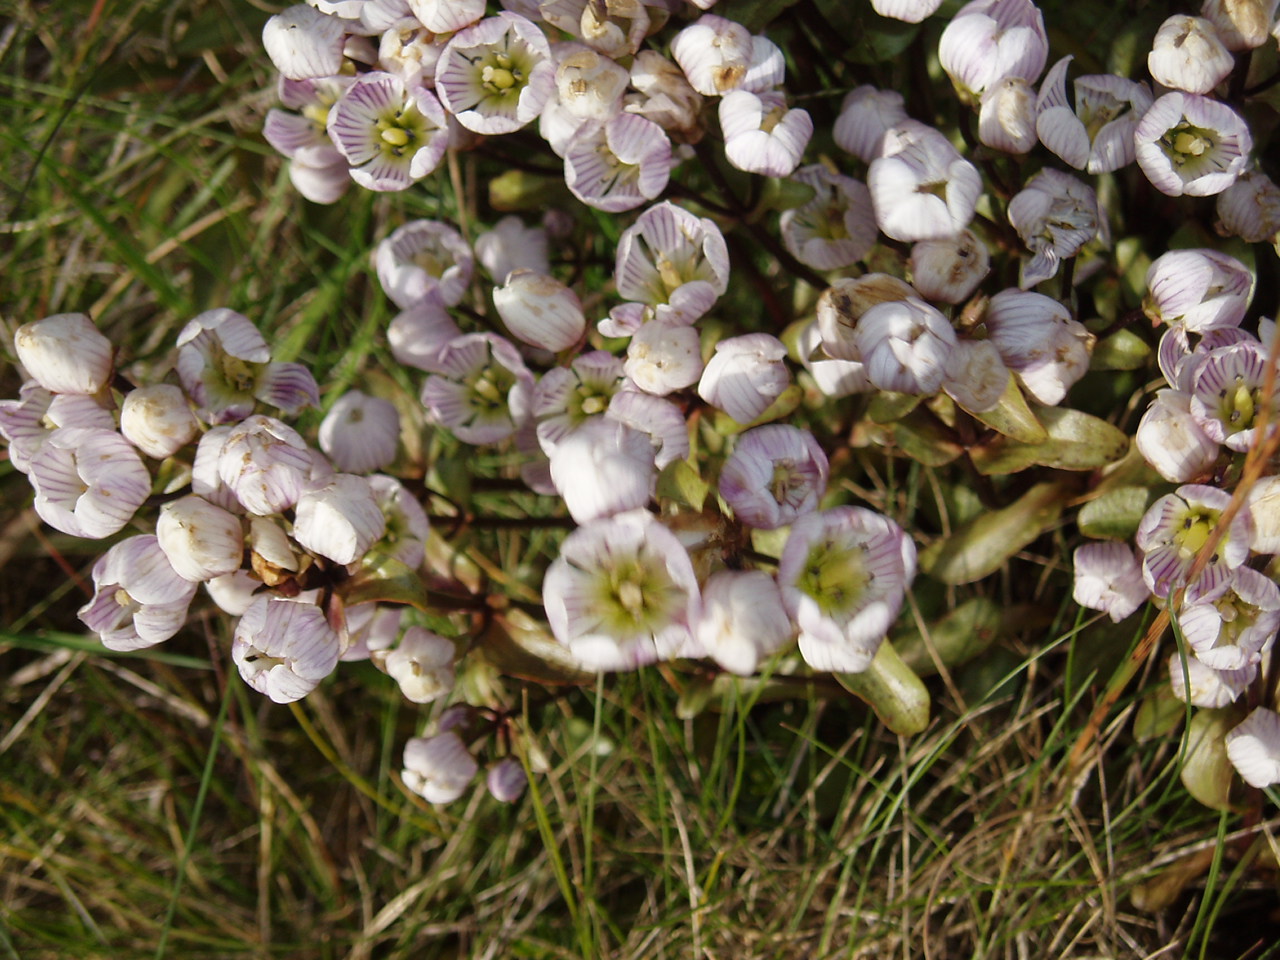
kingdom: Plantae
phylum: Tracheophyta
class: Magnoliopsida
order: Gentianales
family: Gentianaceae
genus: Gentianella
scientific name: Gentianella patula
